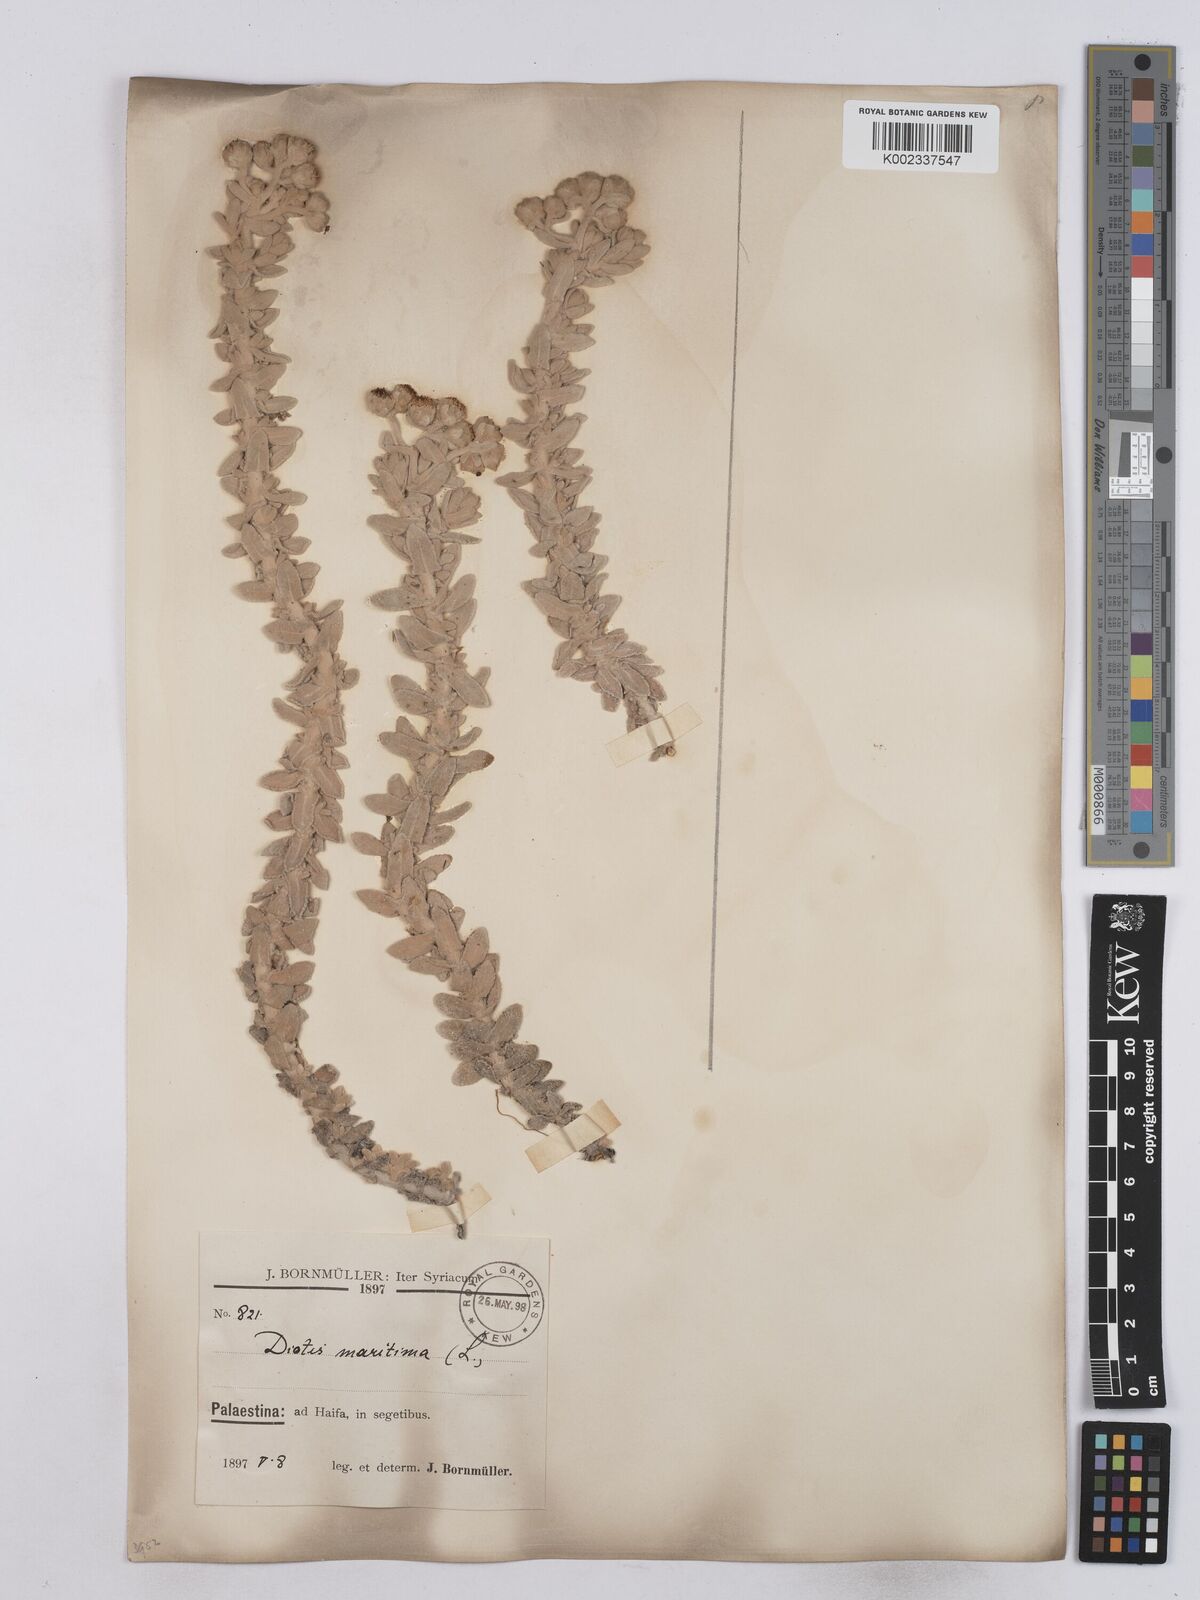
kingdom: Plantae
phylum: Tracheophyta
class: Magnoliopsida
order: Asterales
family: Asteraceae
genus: Achillea
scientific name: Achillea maritima
